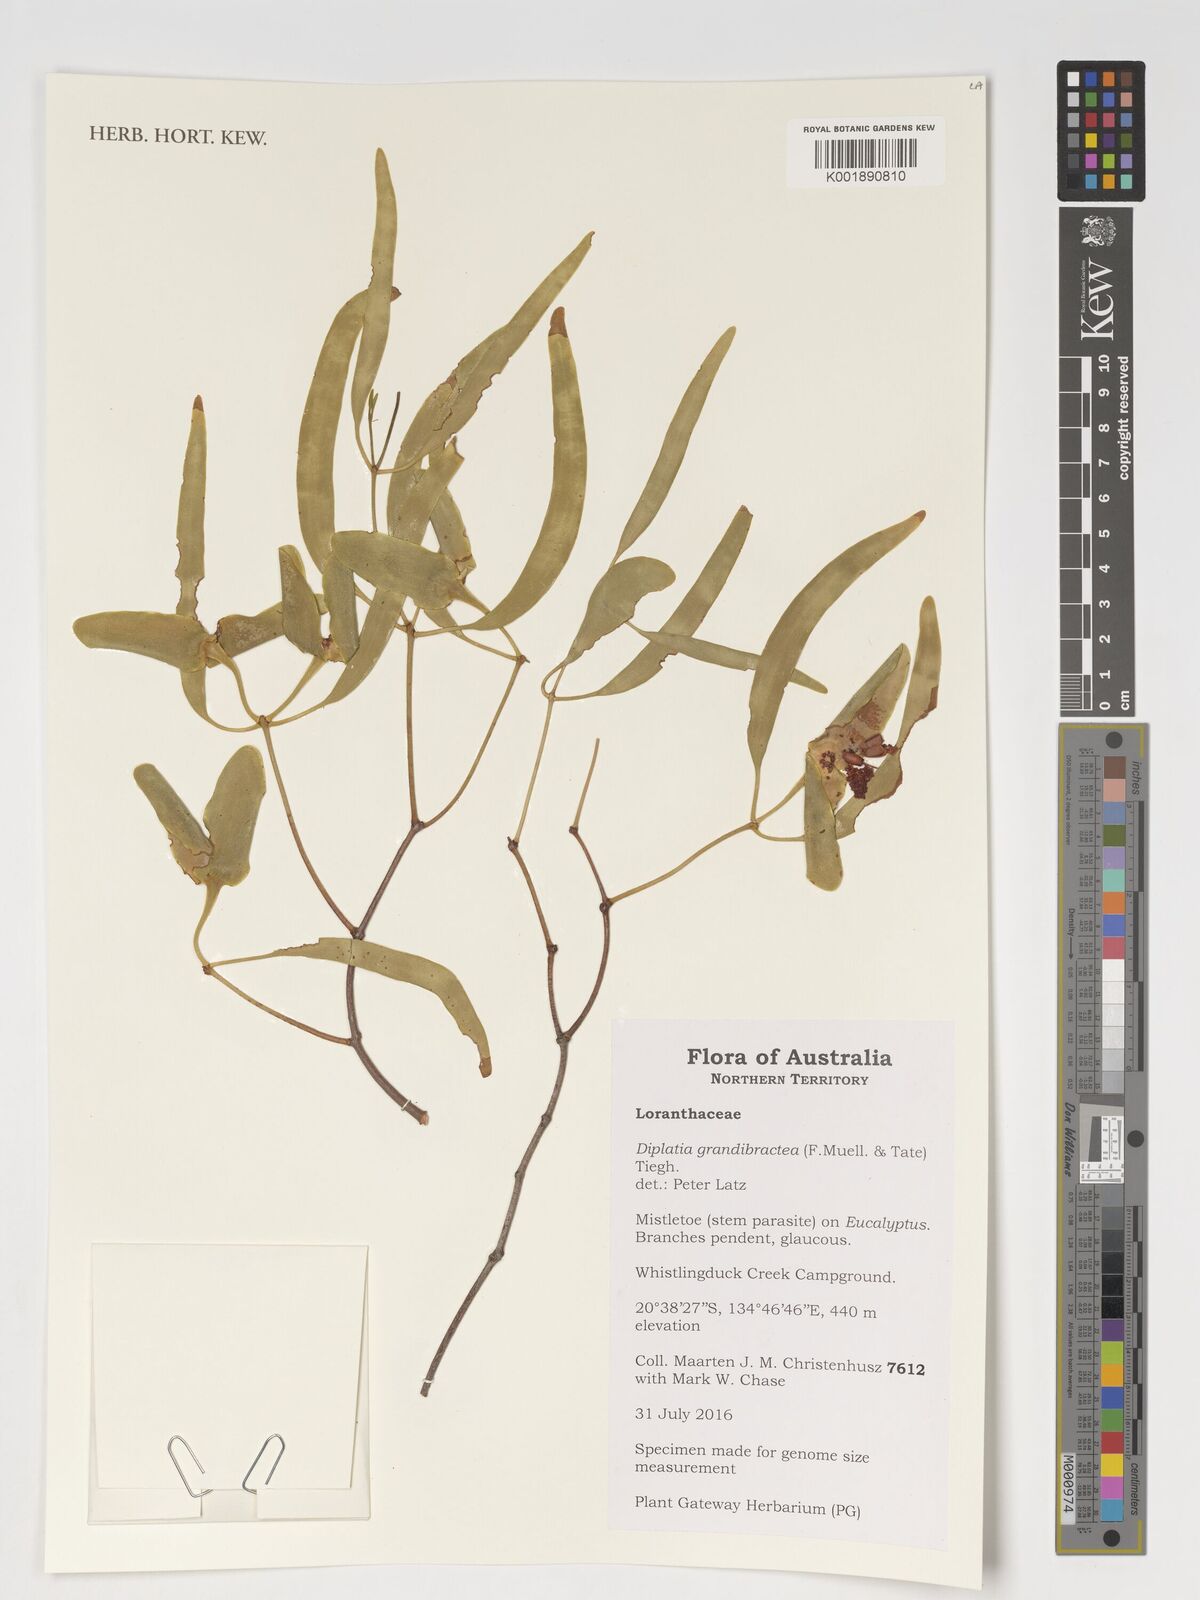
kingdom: Plantae
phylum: Tracheophyta
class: Magnoliopsida
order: Santalales
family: Loranthaceae
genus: Diplatia
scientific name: Diplatia grandibractea
